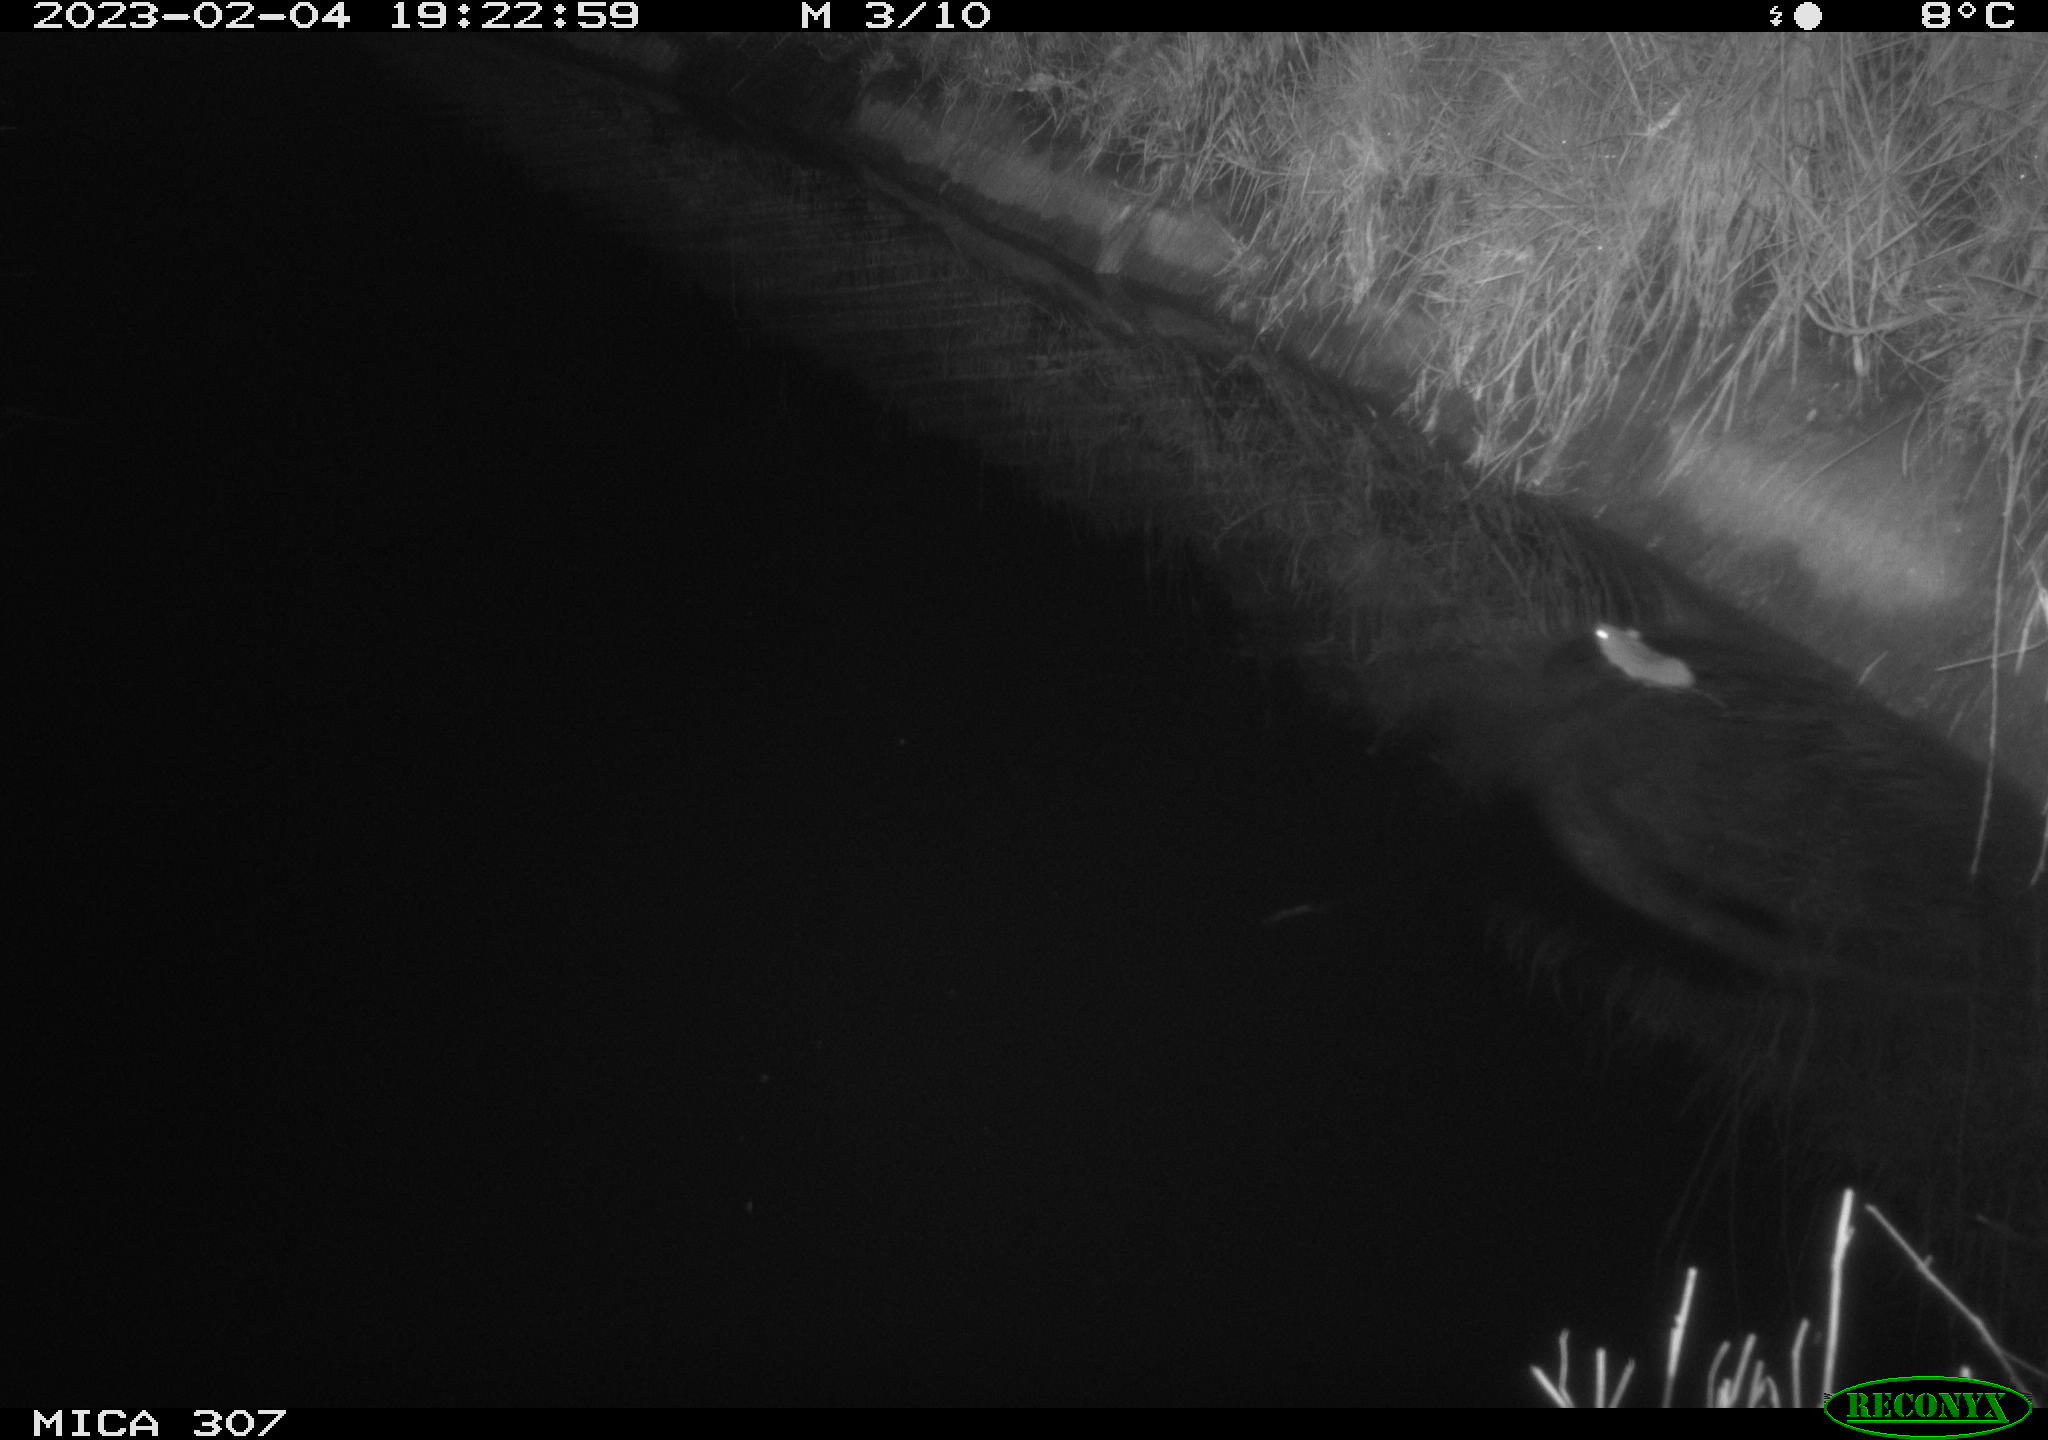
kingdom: Animalia
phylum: Chordata
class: Mammalia
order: Rodentia
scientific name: Rodentia
